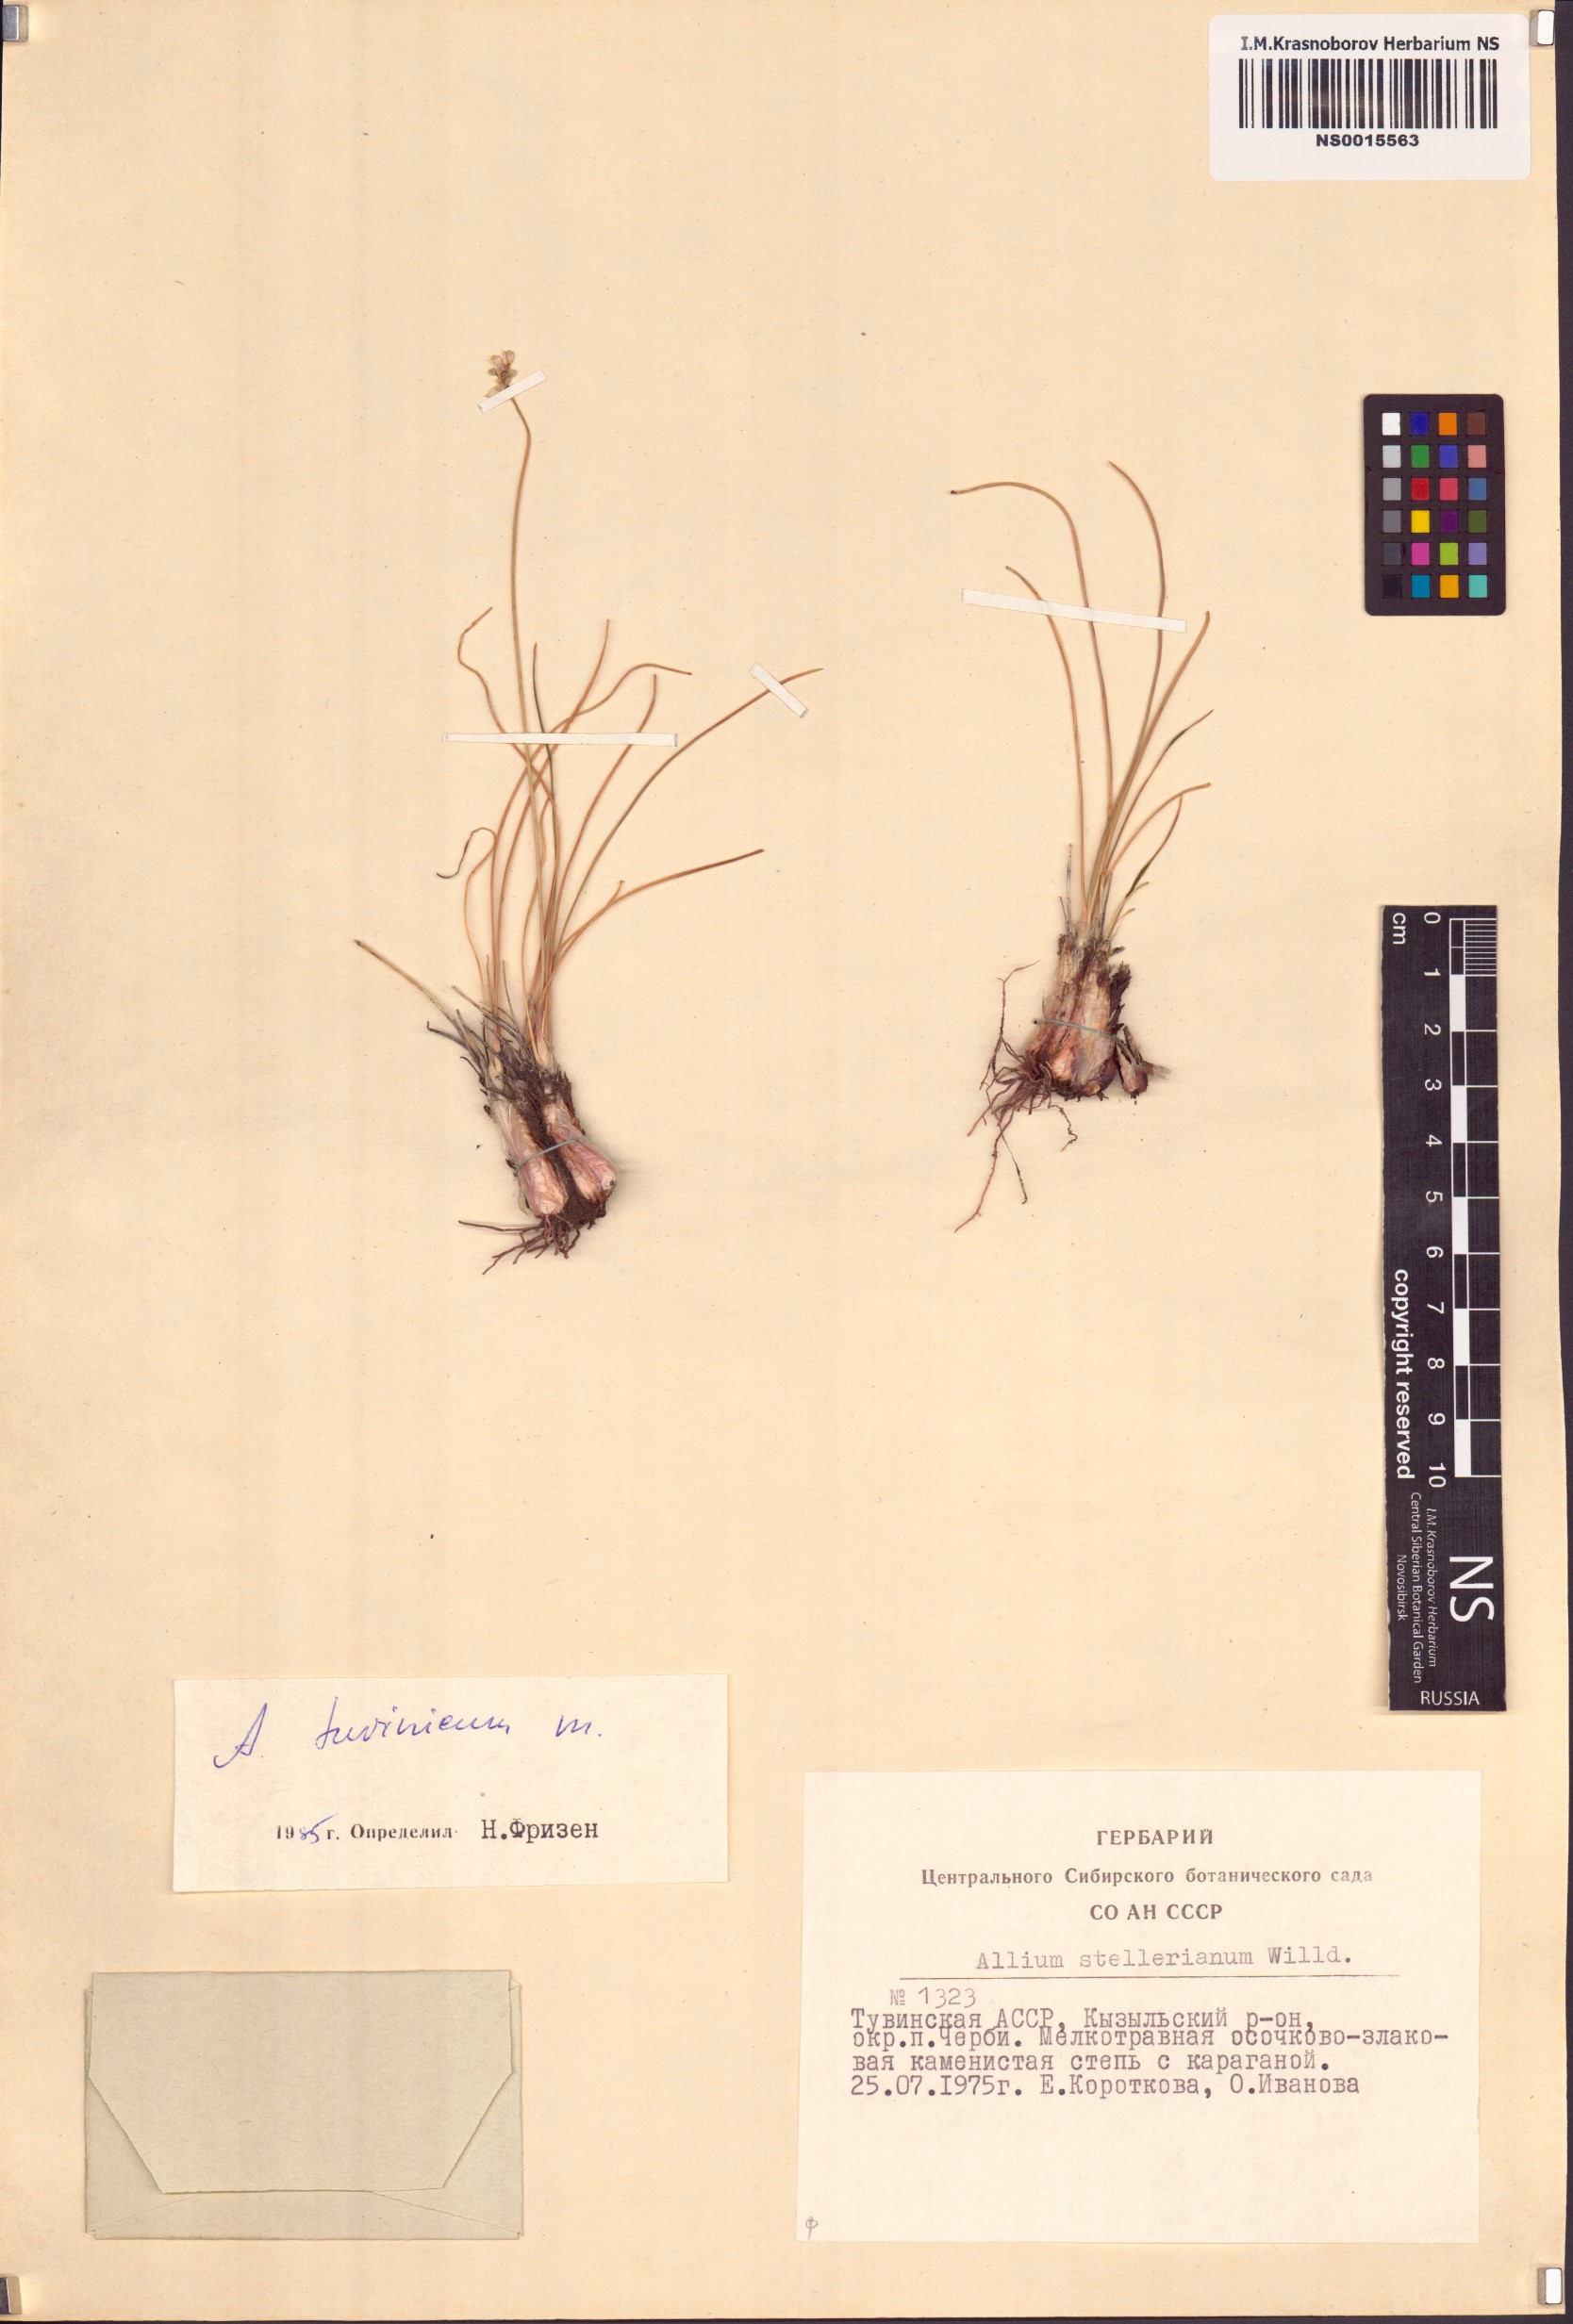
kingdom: Plantae
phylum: Tracheophyta
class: Liliopsida
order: Asparagales
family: Amaryllidaceae
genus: Allium
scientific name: Allium tuvinicum
